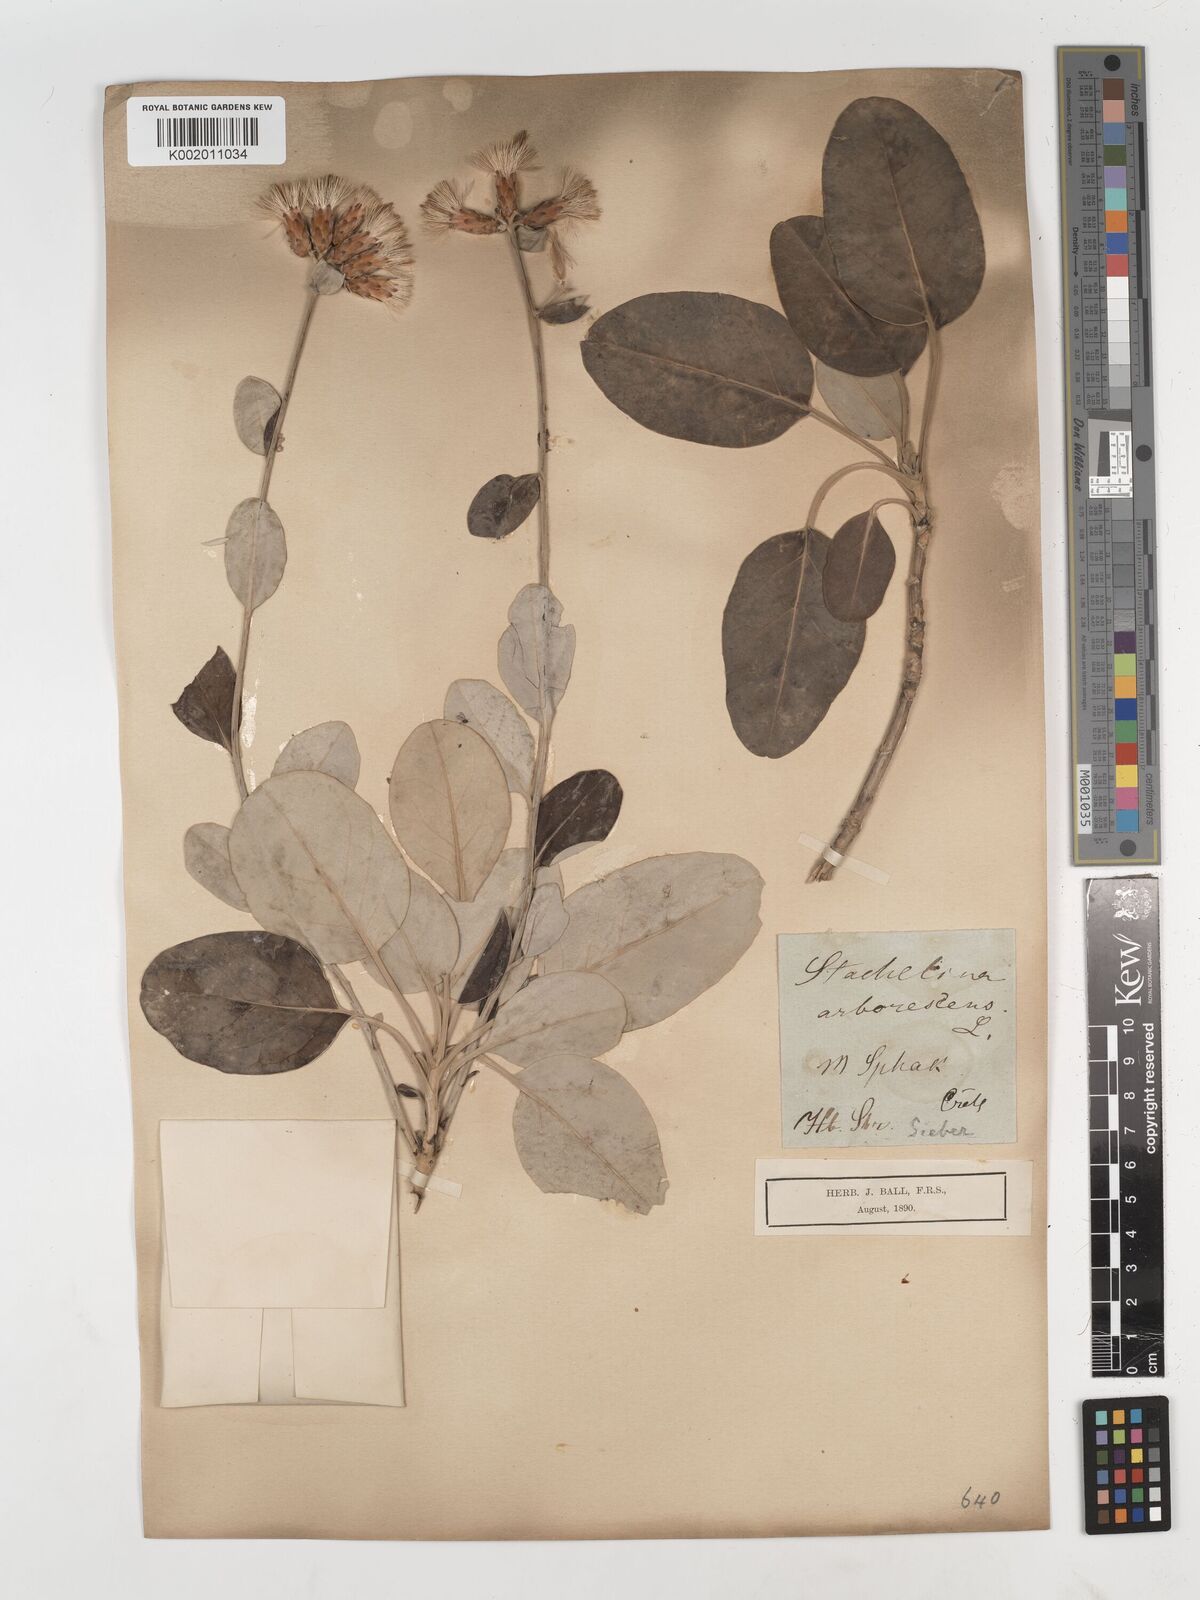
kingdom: Plantae
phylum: Tracheophyta
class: Magnoliopsida
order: Asterales
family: Asteraceae
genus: Staehelina
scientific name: Staehelina petiolata
